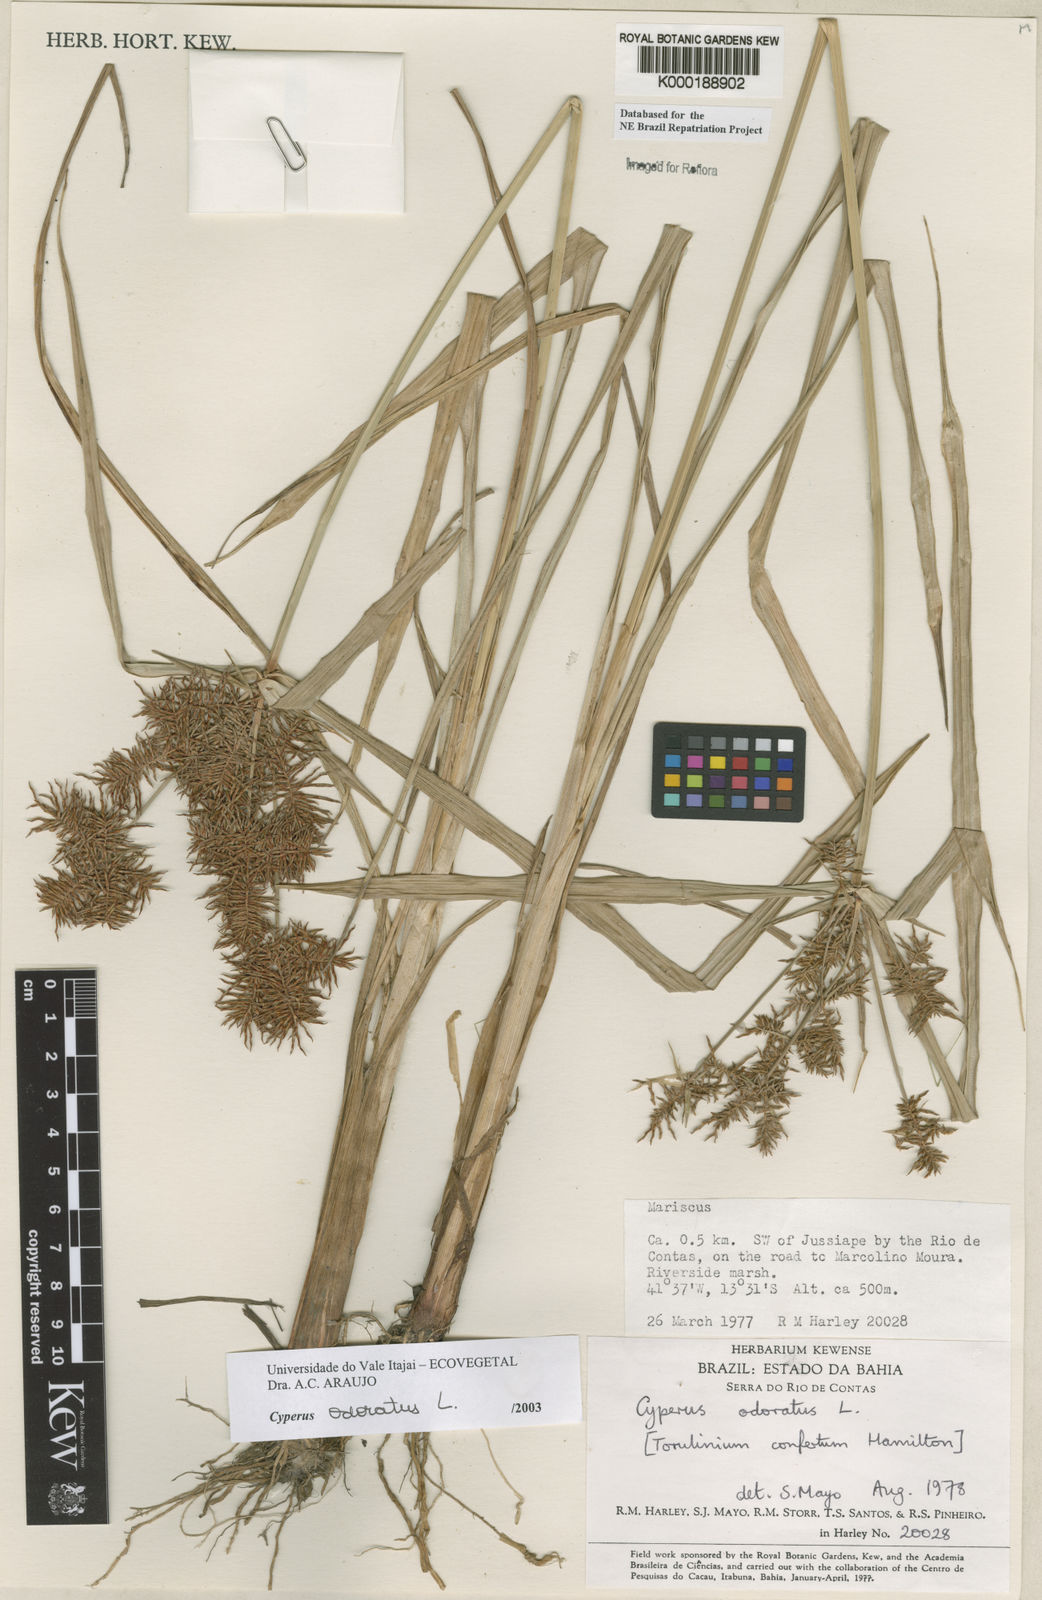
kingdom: Plantae
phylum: Tracheophyta
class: Liliopsida
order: Poales
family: Cyperaceae
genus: Cyperus
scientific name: Cyperus odoratus
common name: Fragrant flatsedge
